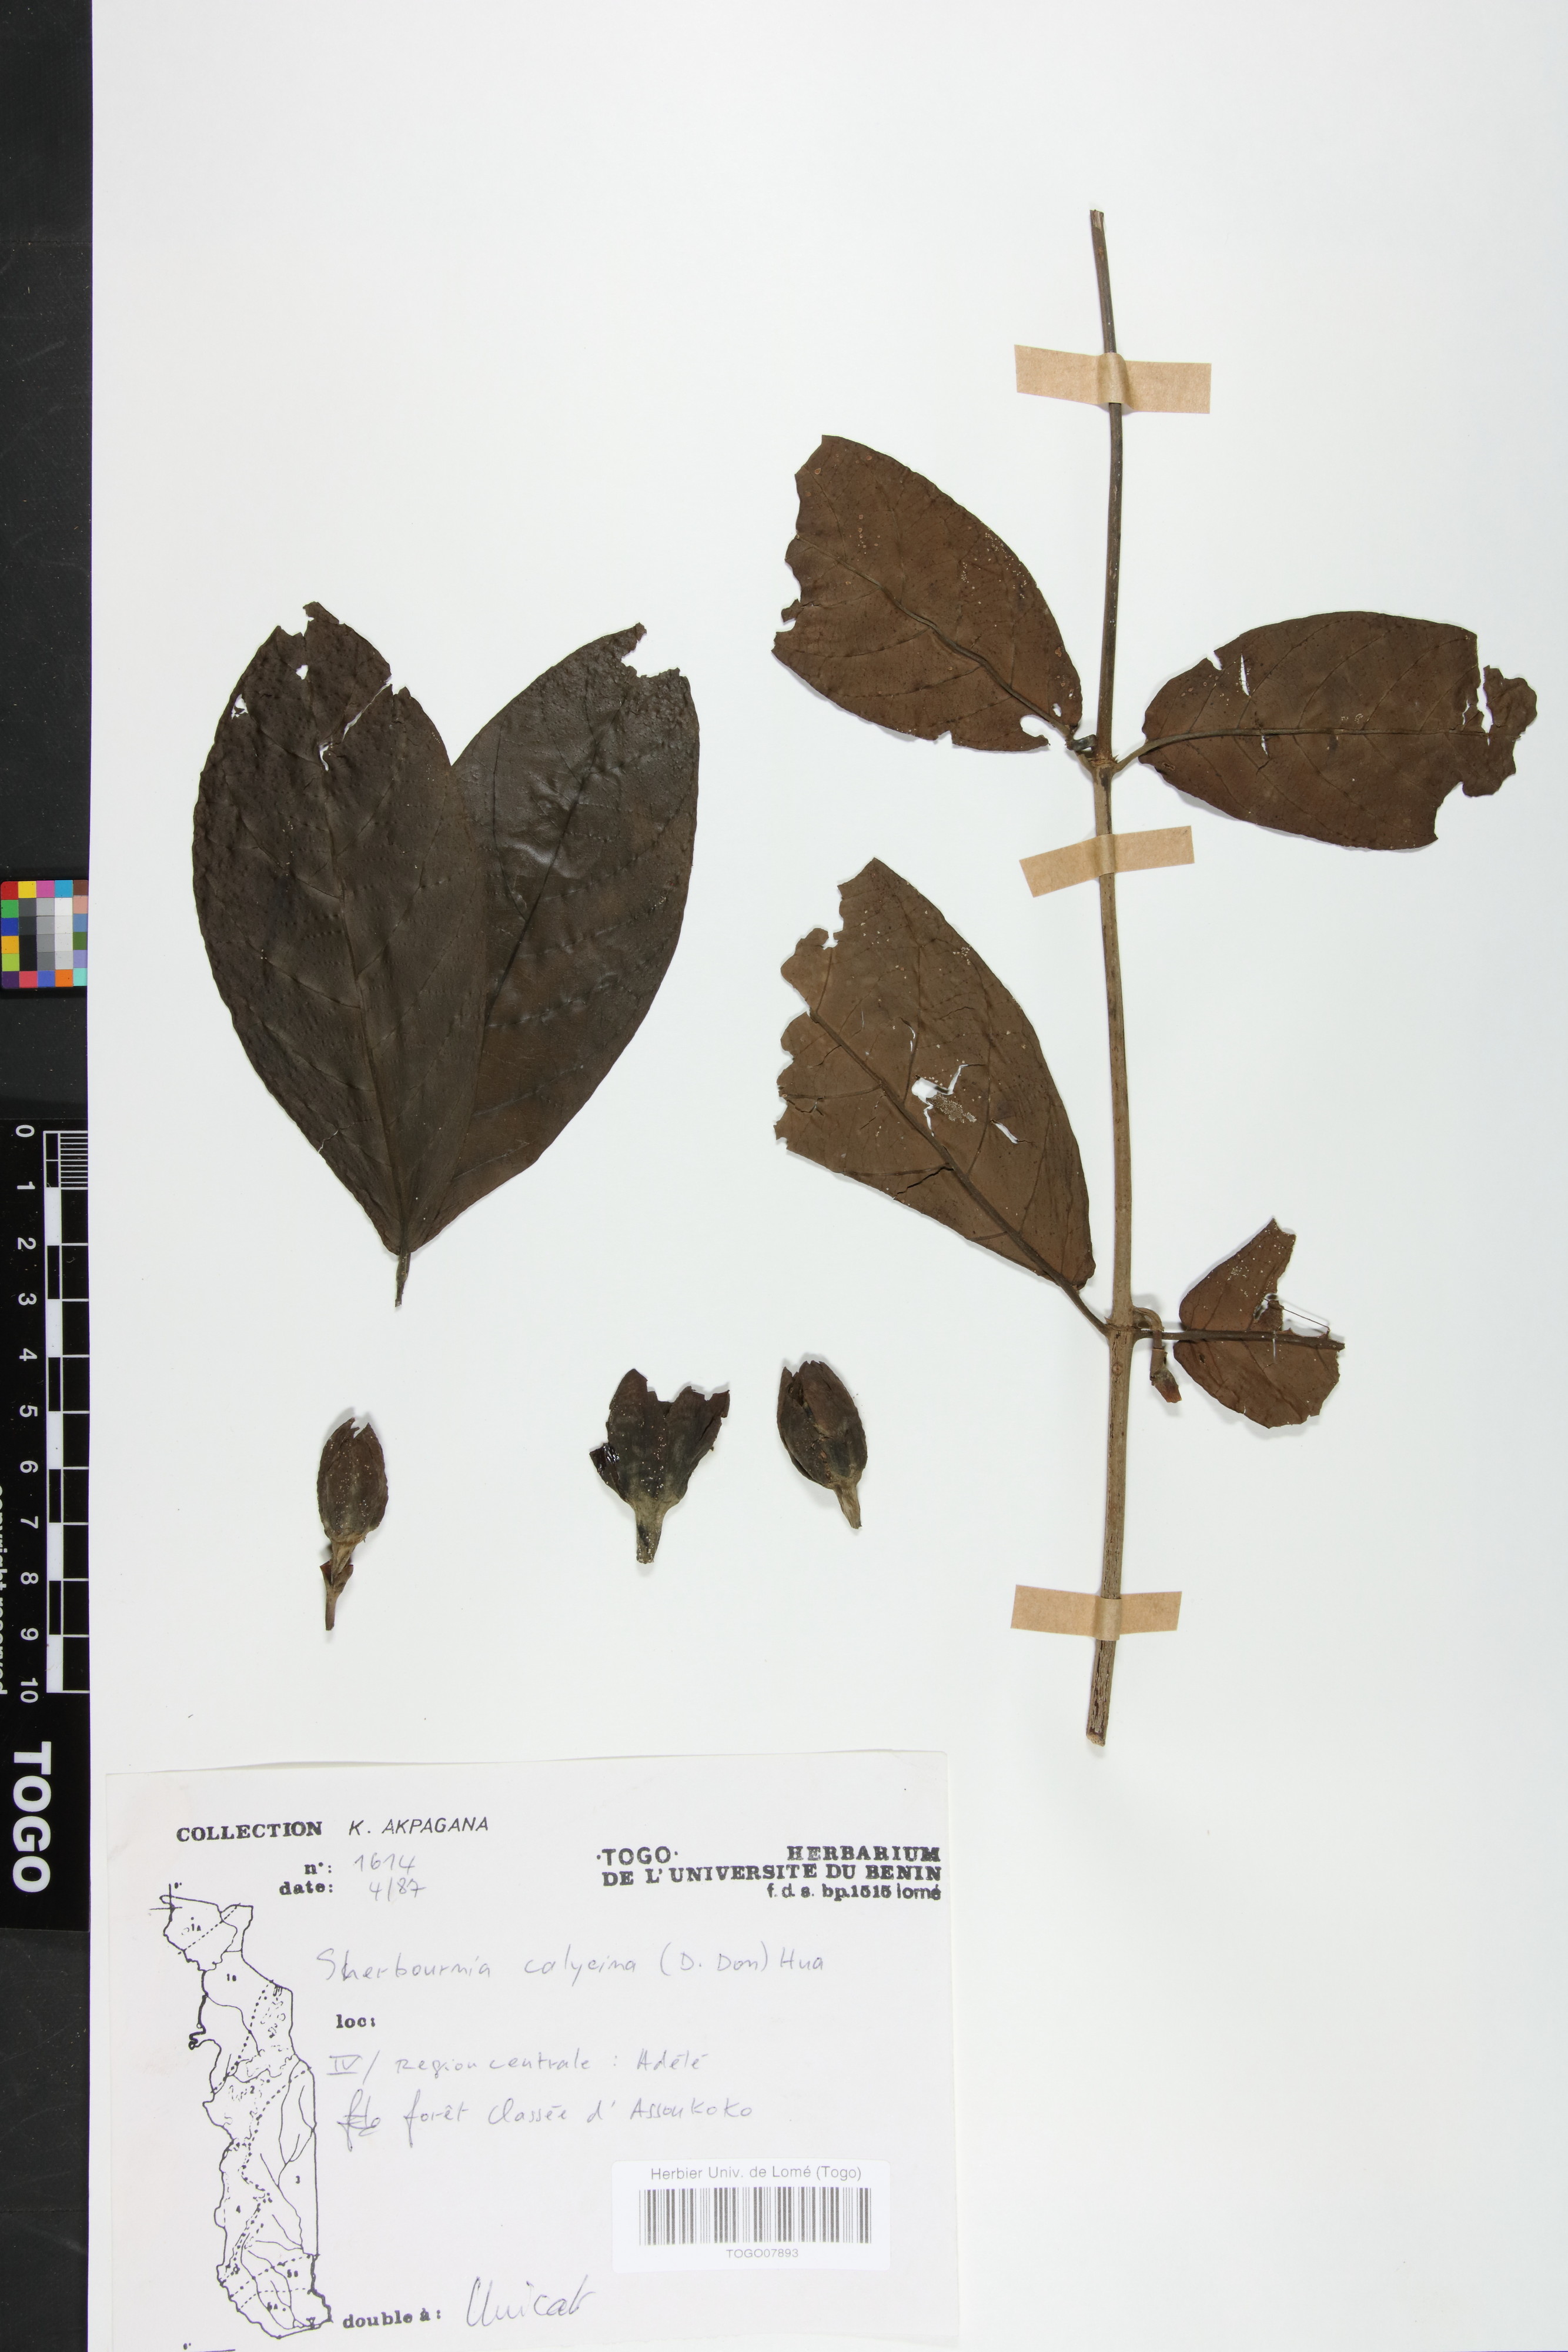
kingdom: Plantae
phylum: Tracheophyta
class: Magnoliopsida
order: Gentianales
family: Rubiaceae
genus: Sherbournia
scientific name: Sherbournia calycina
